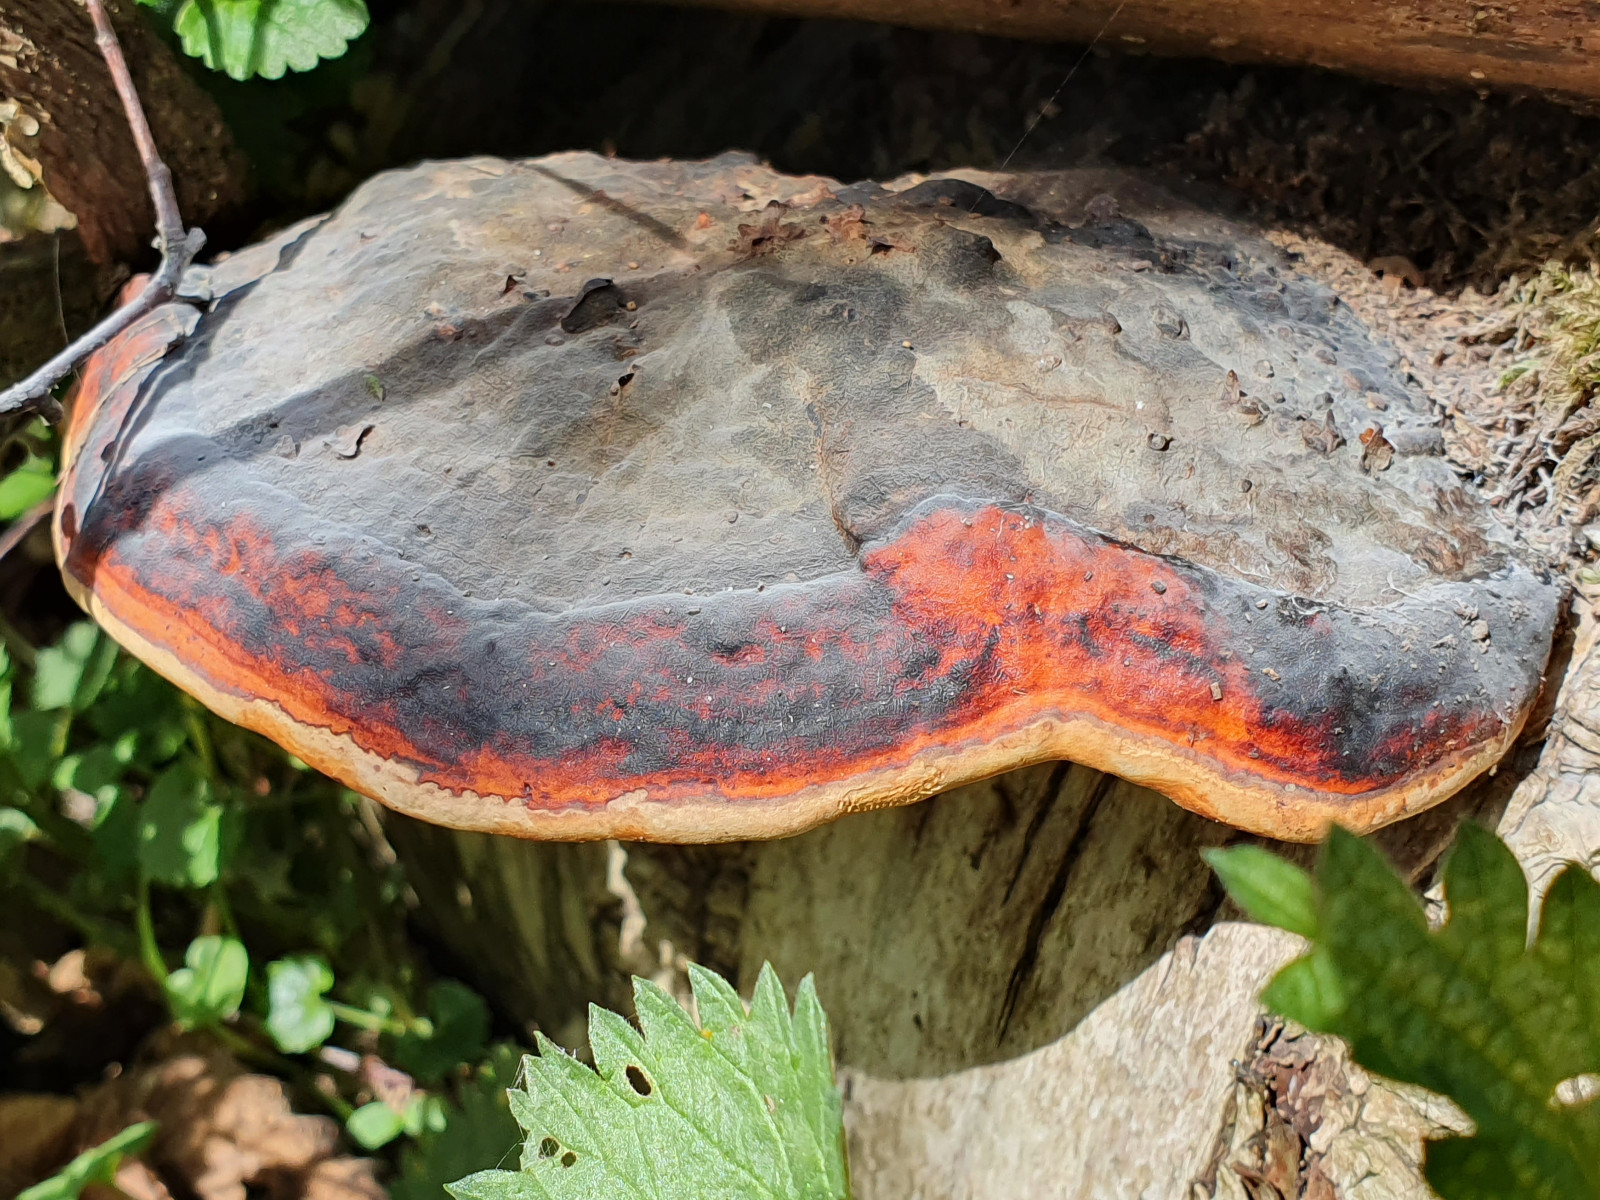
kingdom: Fungi
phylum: Basidiomycota
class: Agaricomycetes
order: Polyporales
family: Fomitopsidaceae
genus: Fomitopsis
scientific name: Fomitopsis pinicola
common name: randbæltet hovporesvamp
